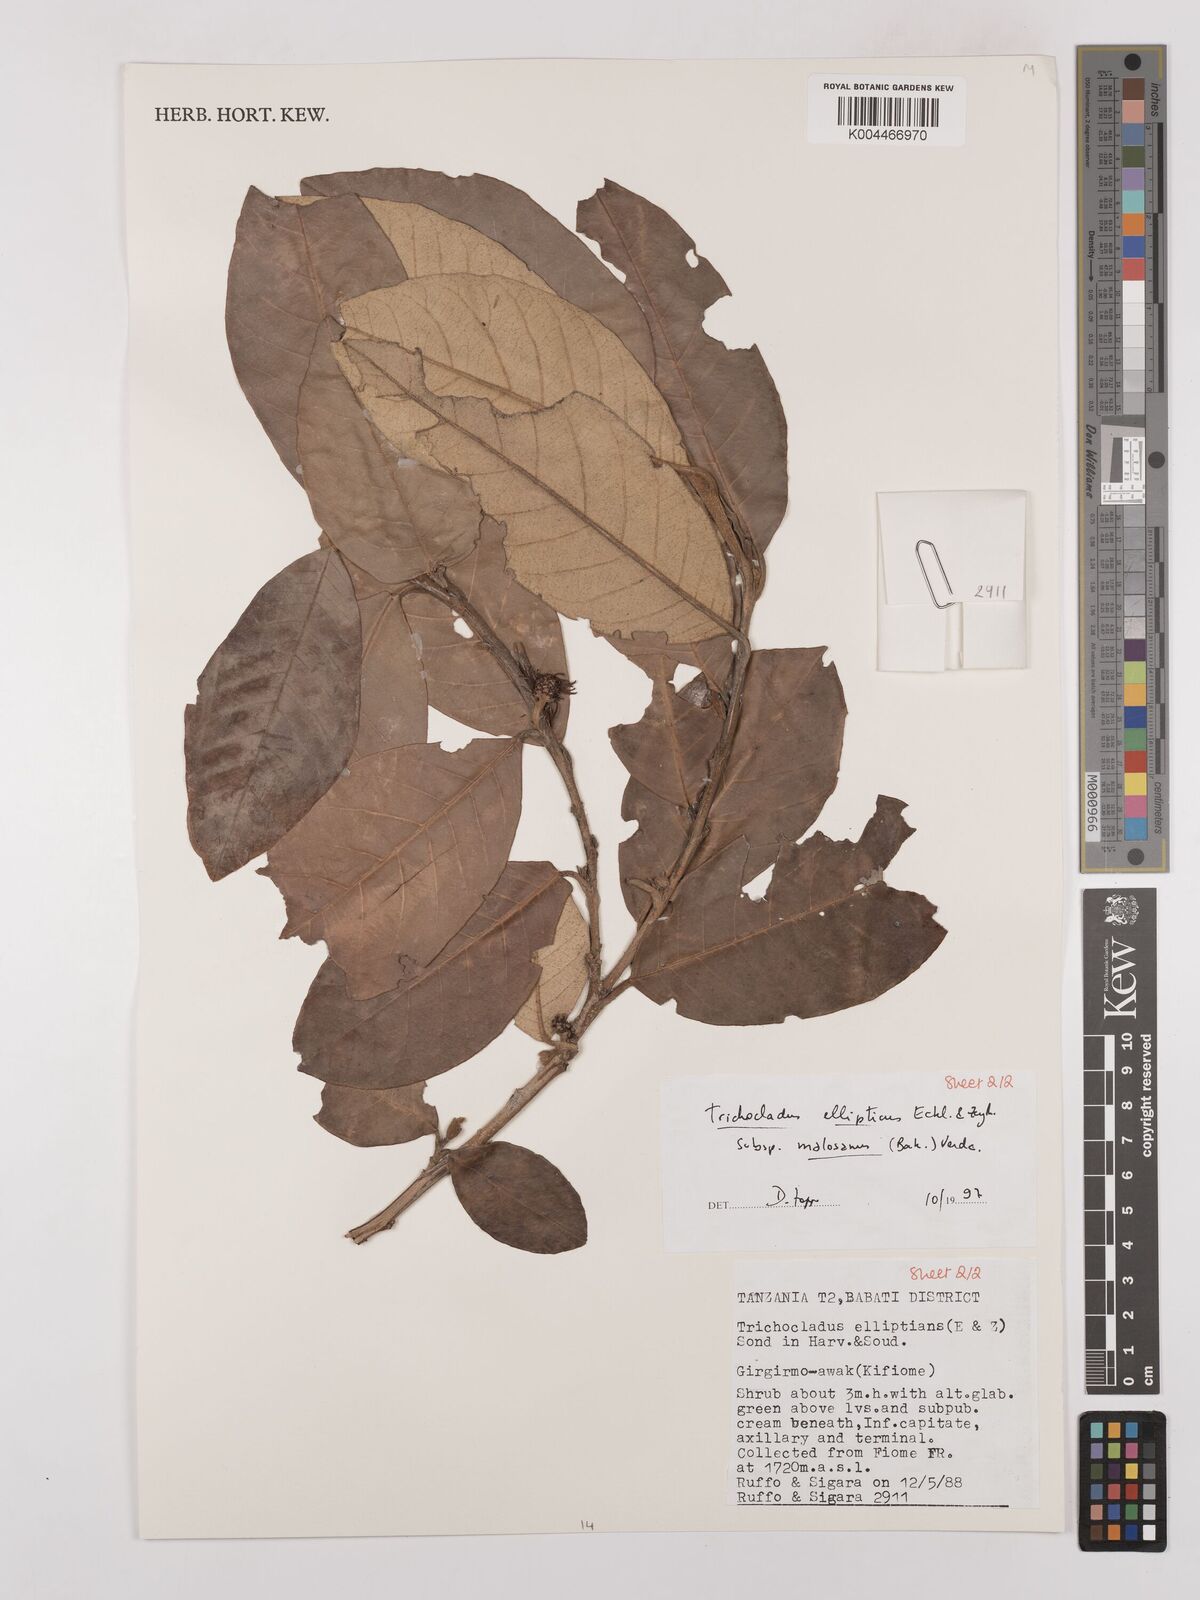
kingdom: Plantae
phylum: Tracheophyta
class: Magnoliopsida
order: Saxifragales
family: Hamamelidaceae
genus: Trichocladus
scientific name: Trichocladus ellipticus
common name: White witch-hazel
